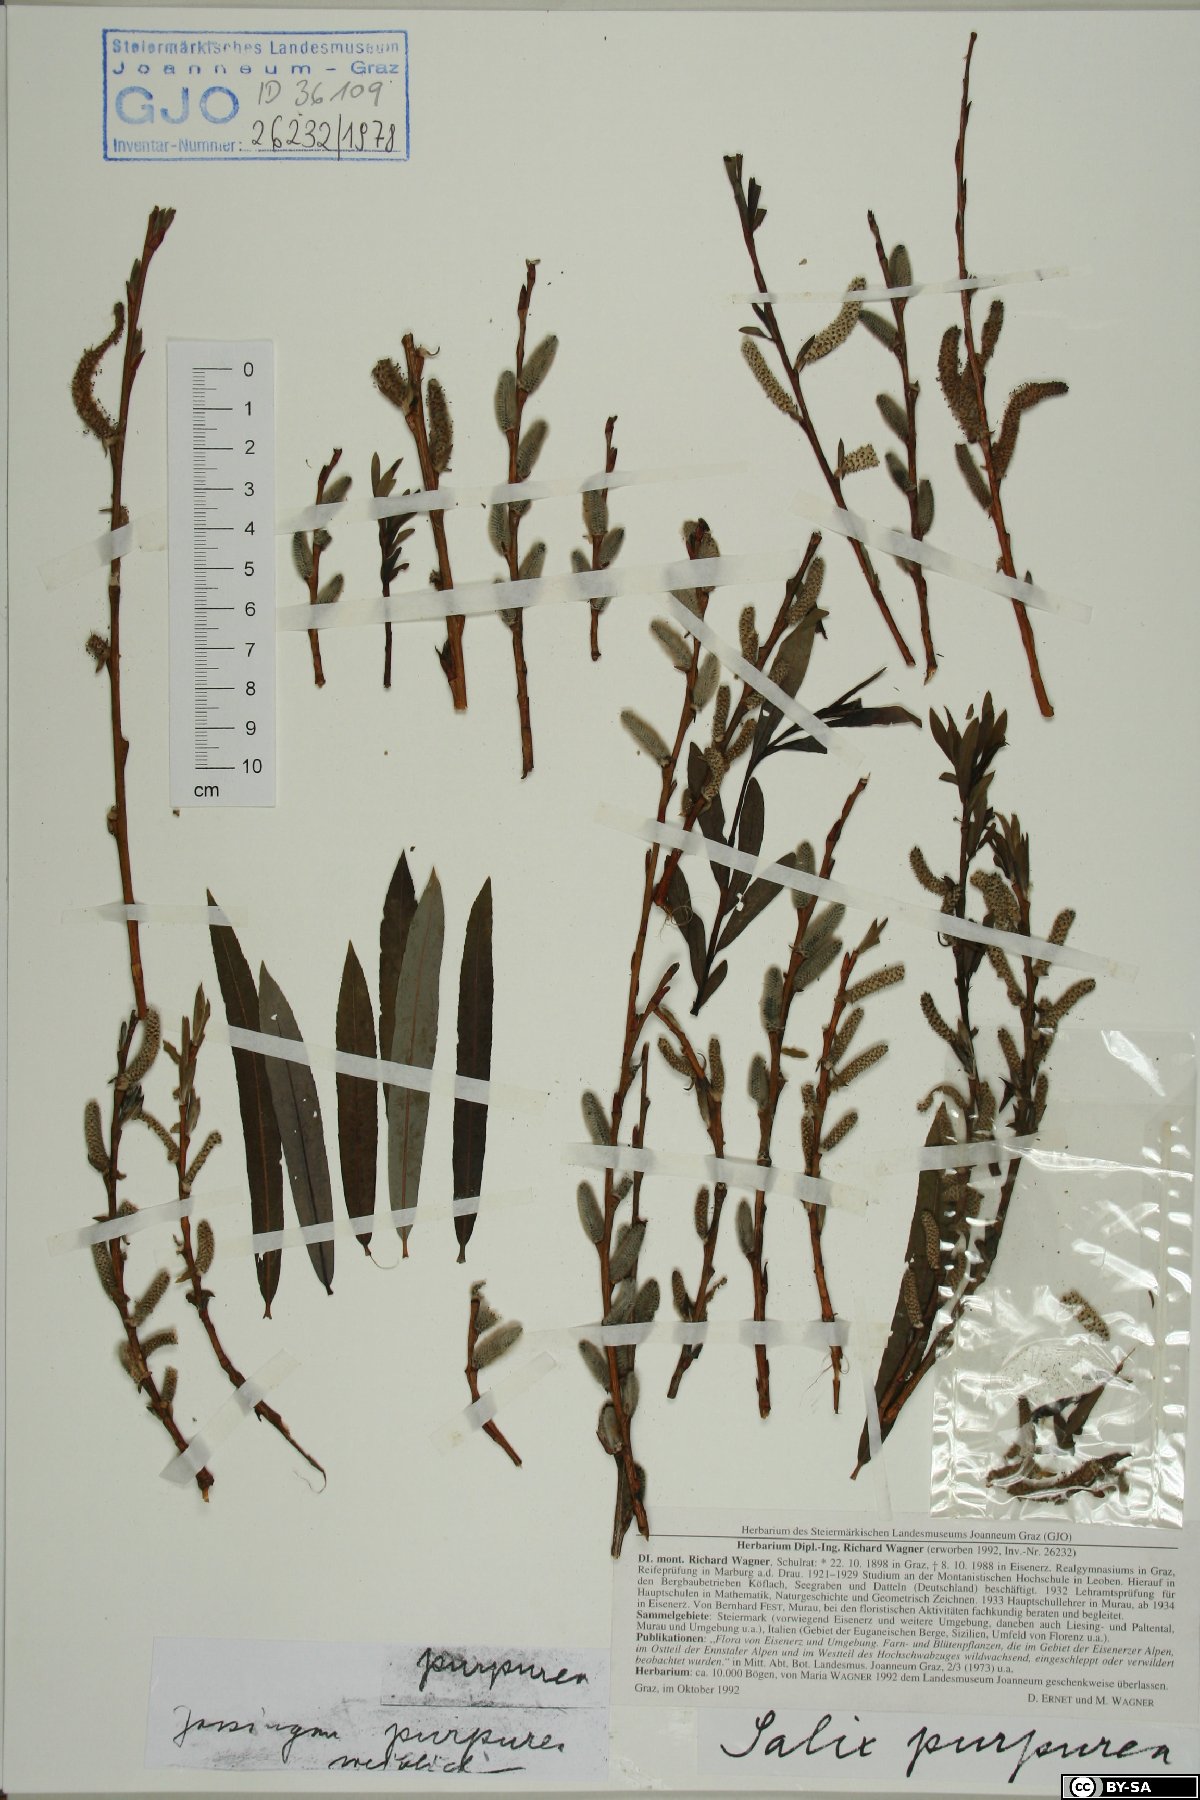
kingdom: Plantae
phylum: Tracheophyta
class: Magnoliopsida
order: Malpighiales
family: Salicaceae
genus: Salix
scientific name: Salix purpurea
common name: Purple willow
